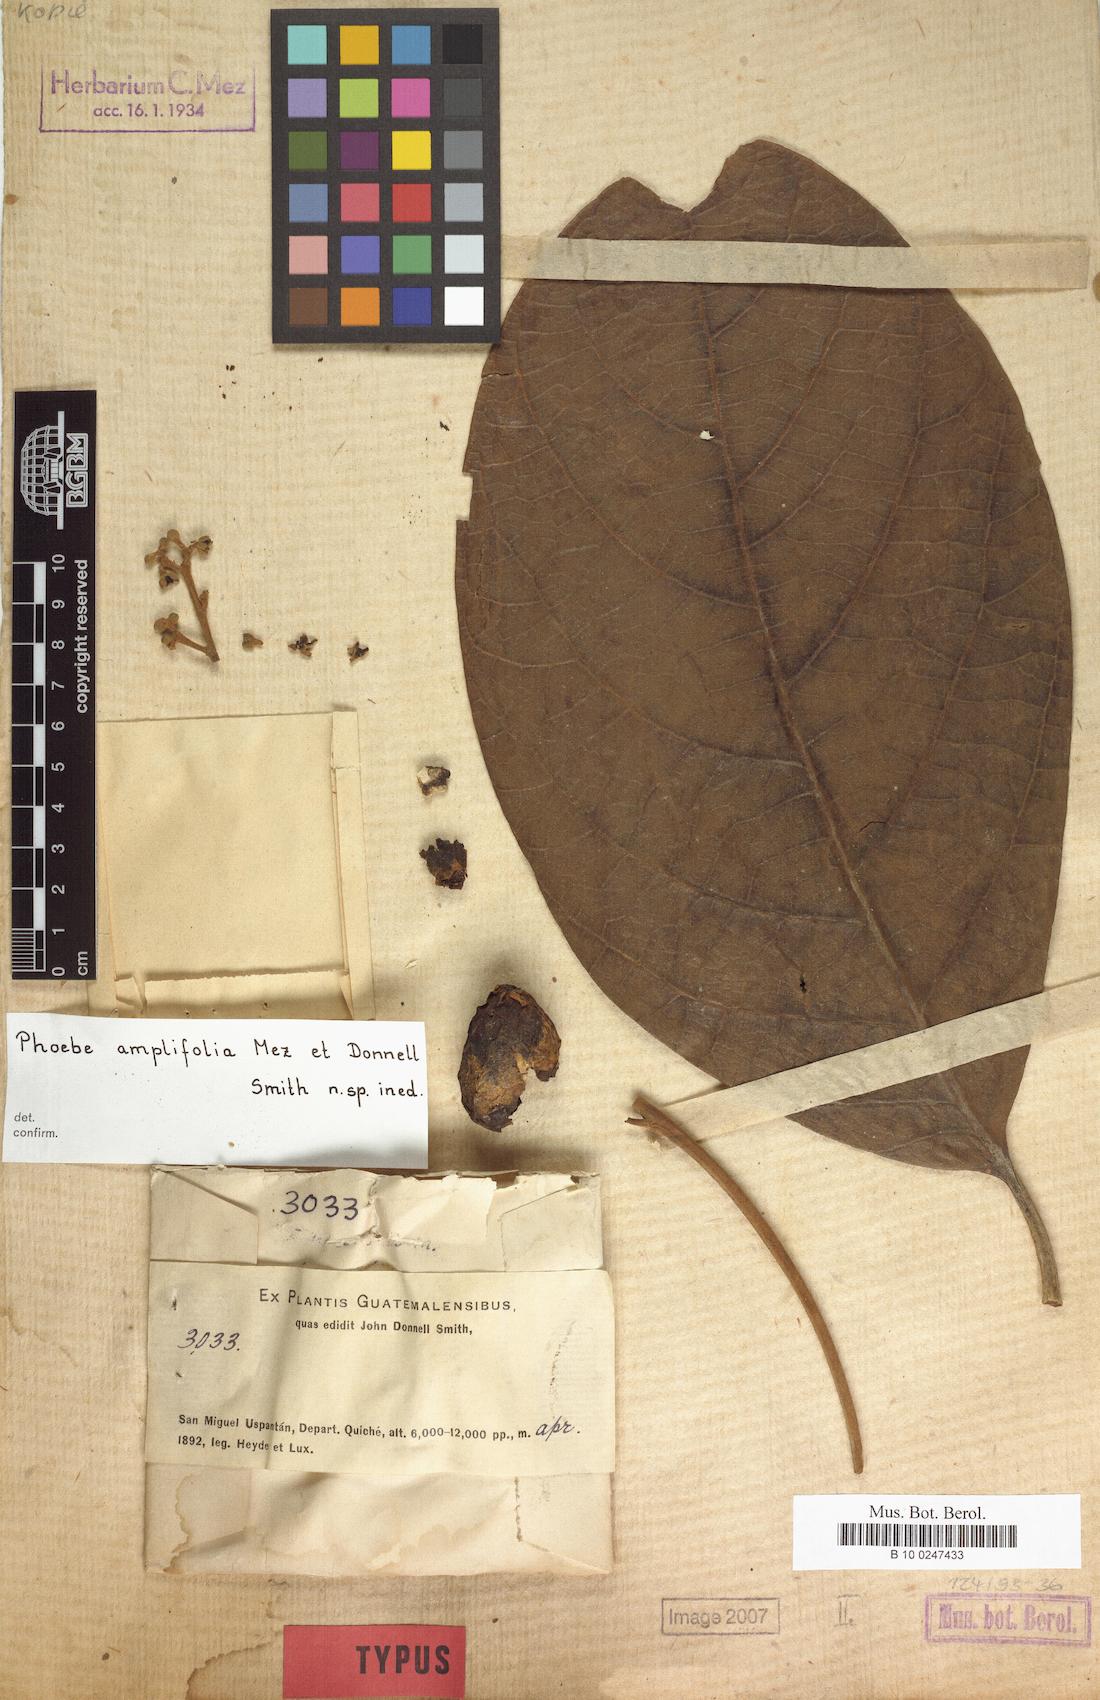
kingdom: Plantae
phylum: Tracheophyta
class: Magnoliopsida
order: Laurales
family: Lauraceae
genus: Ocotea
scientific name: Ocotea amplifolia
